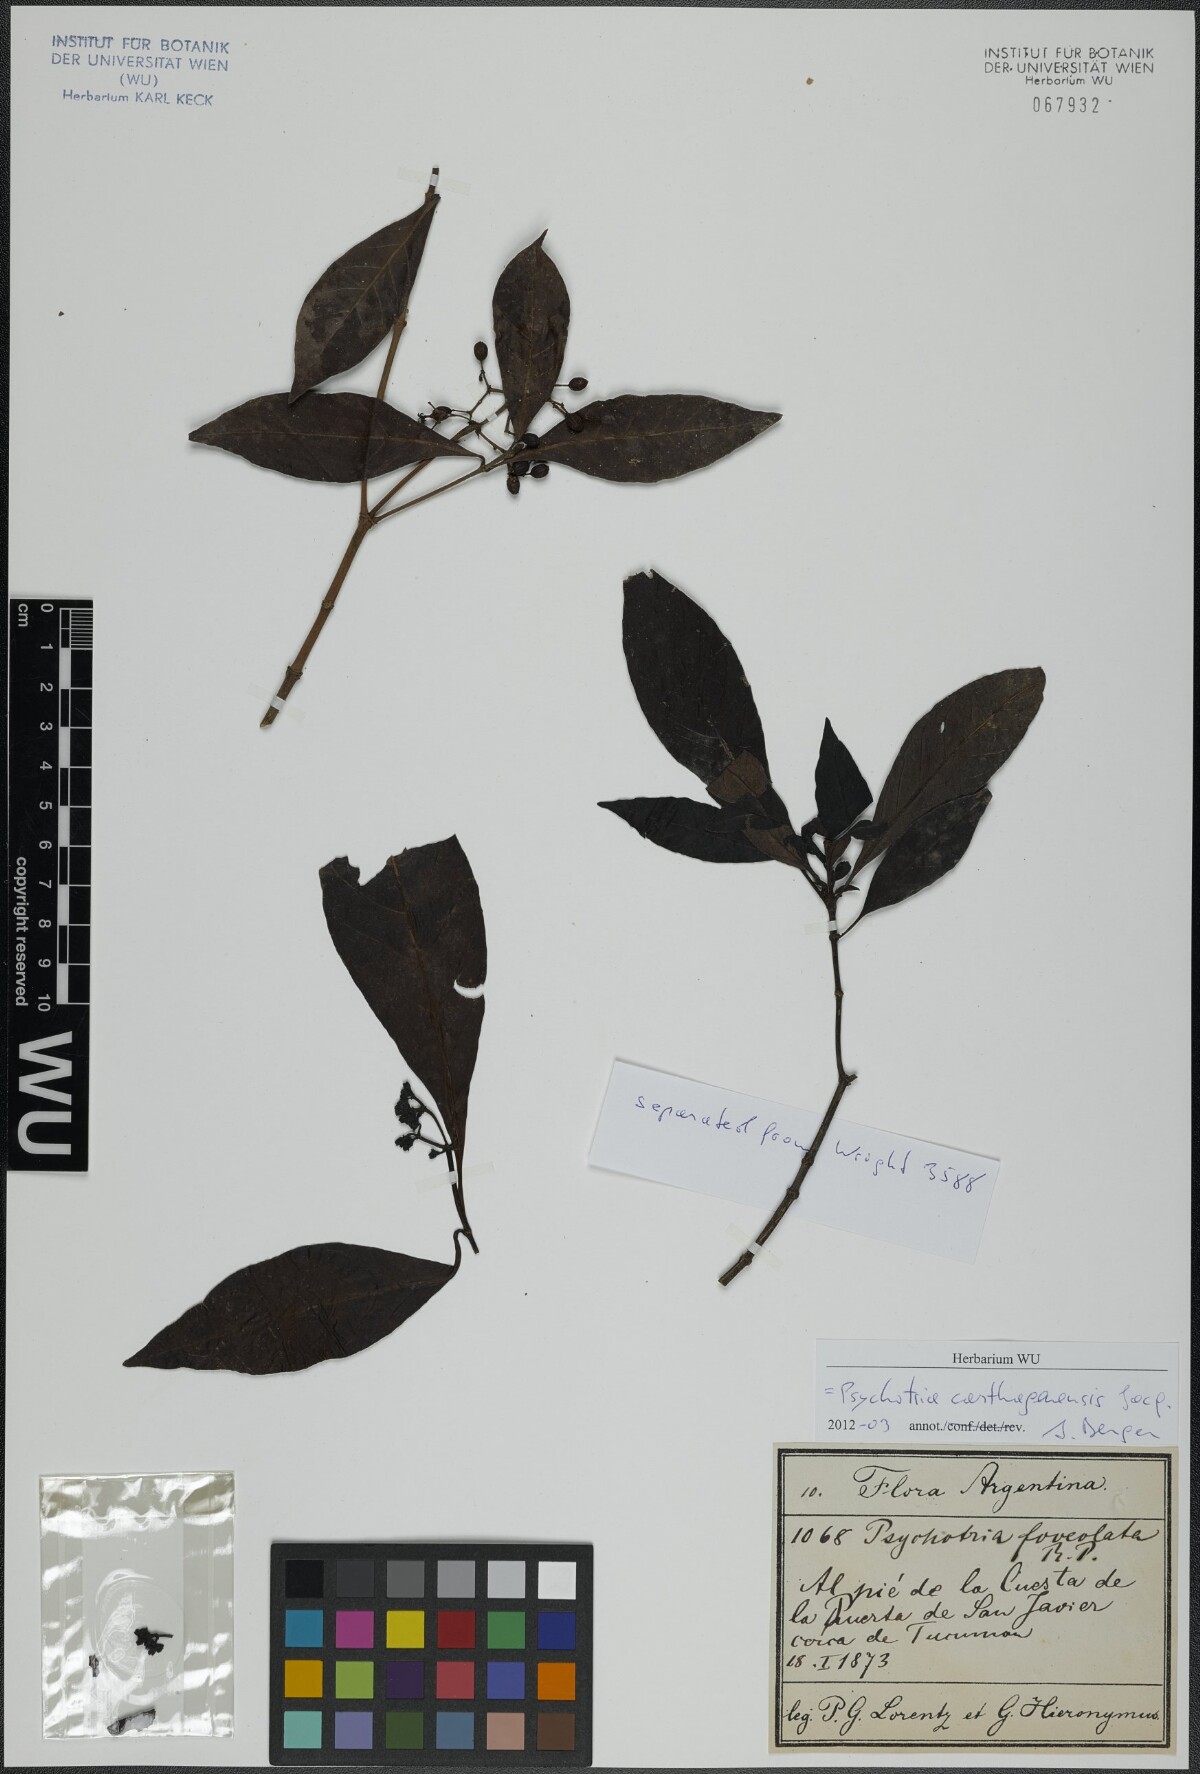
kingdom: Plantae
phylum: Tracheophyta
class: Magnoliopsida
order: Gentianales
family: Rubiaceae
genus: Psychotria
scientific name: Psychotria carthagenensis
